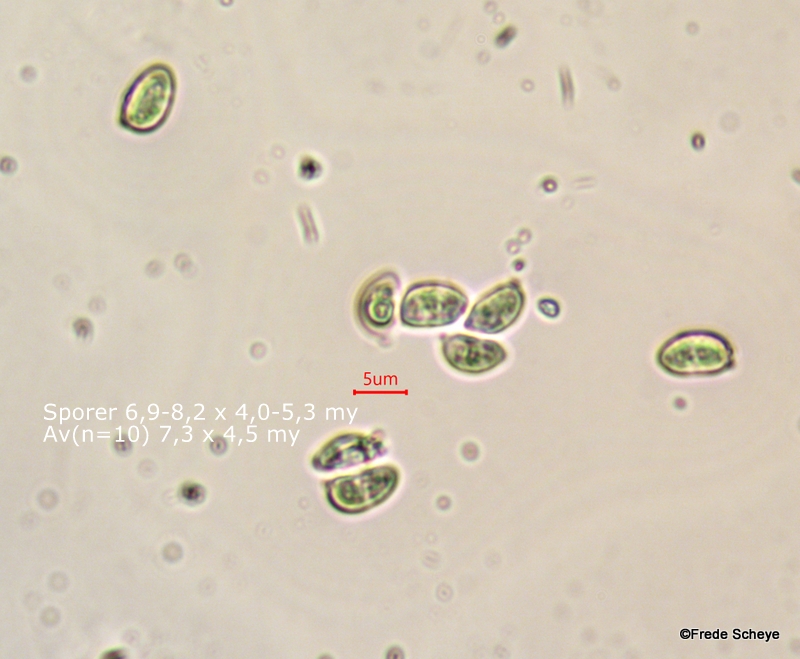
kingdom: Fungi
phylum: Basidiomycota
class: Agaricomycetes
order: Agaricales
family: Clavariaceae
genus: Clavulinopsis
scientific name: Clavulinopsis luteoalba
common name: abrikos-køllesvamp
